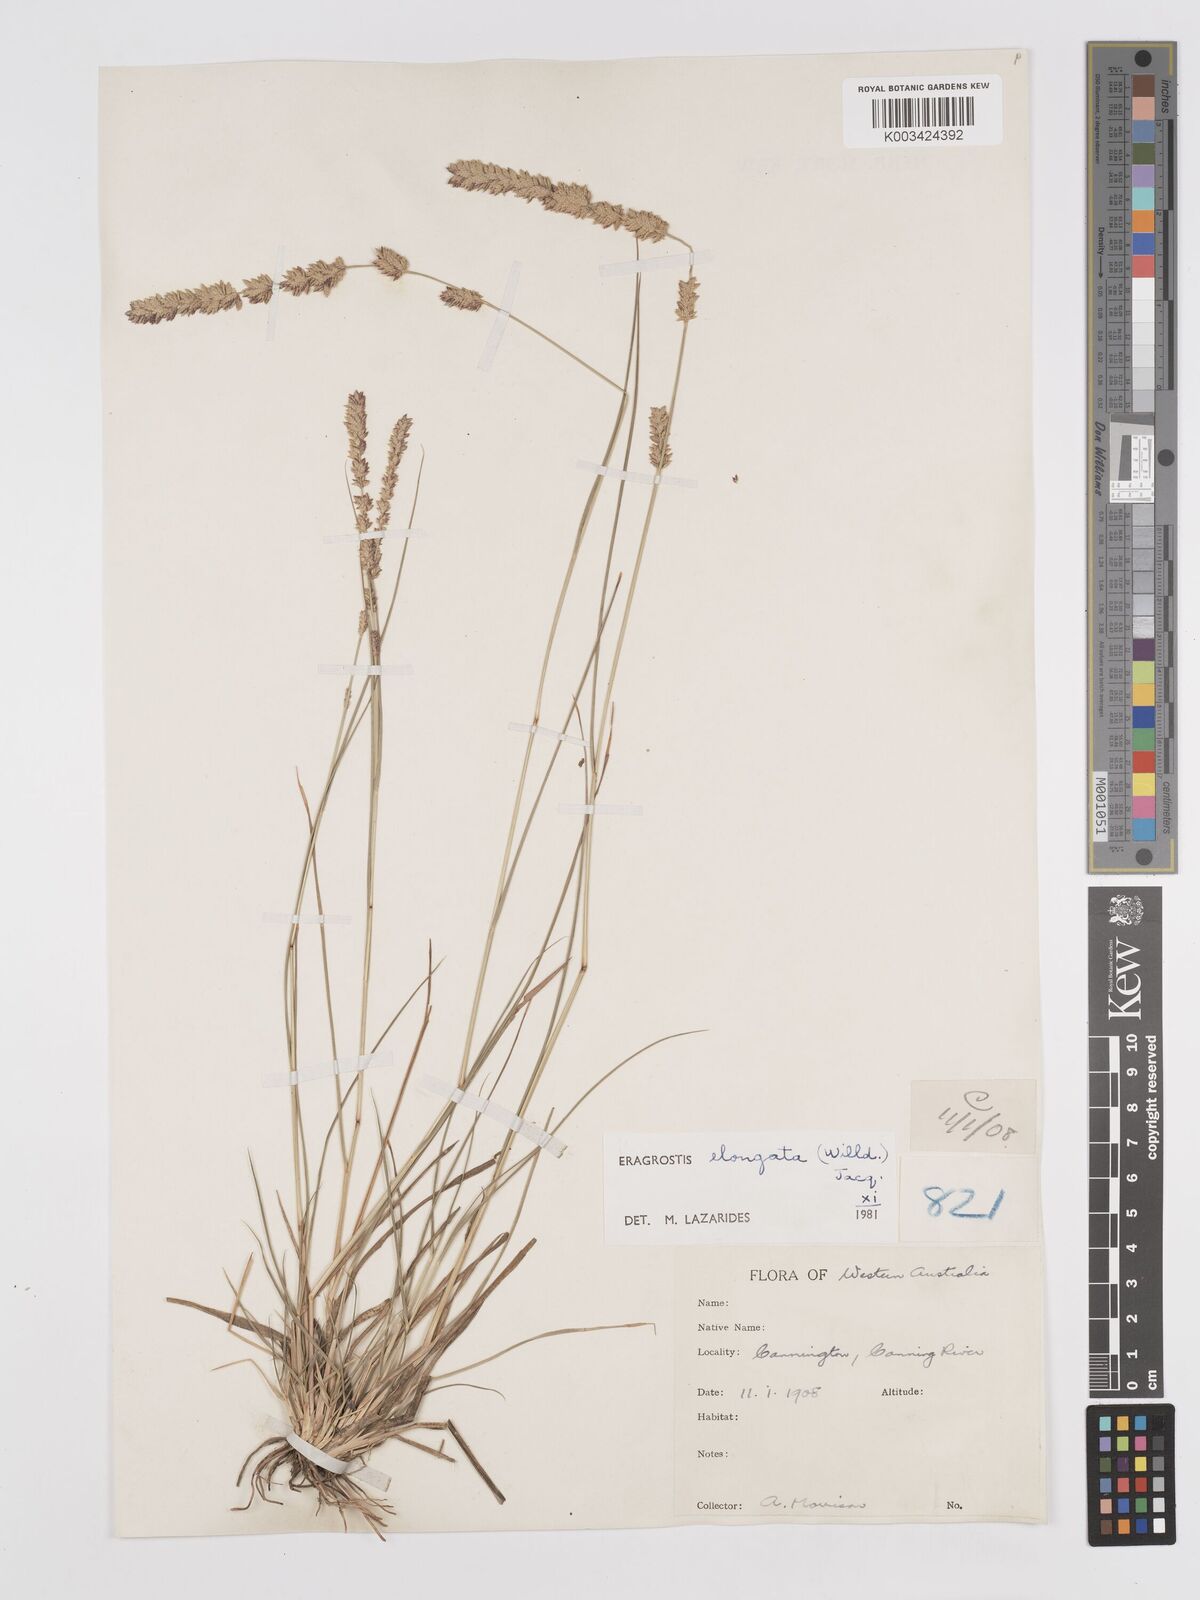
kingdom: Plantae
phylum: Tracheophyta
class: Liliopsida
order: Poales
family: Poaceae
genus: Eragrostis
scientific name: Eragrostis elongata
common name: Long lovegrass
